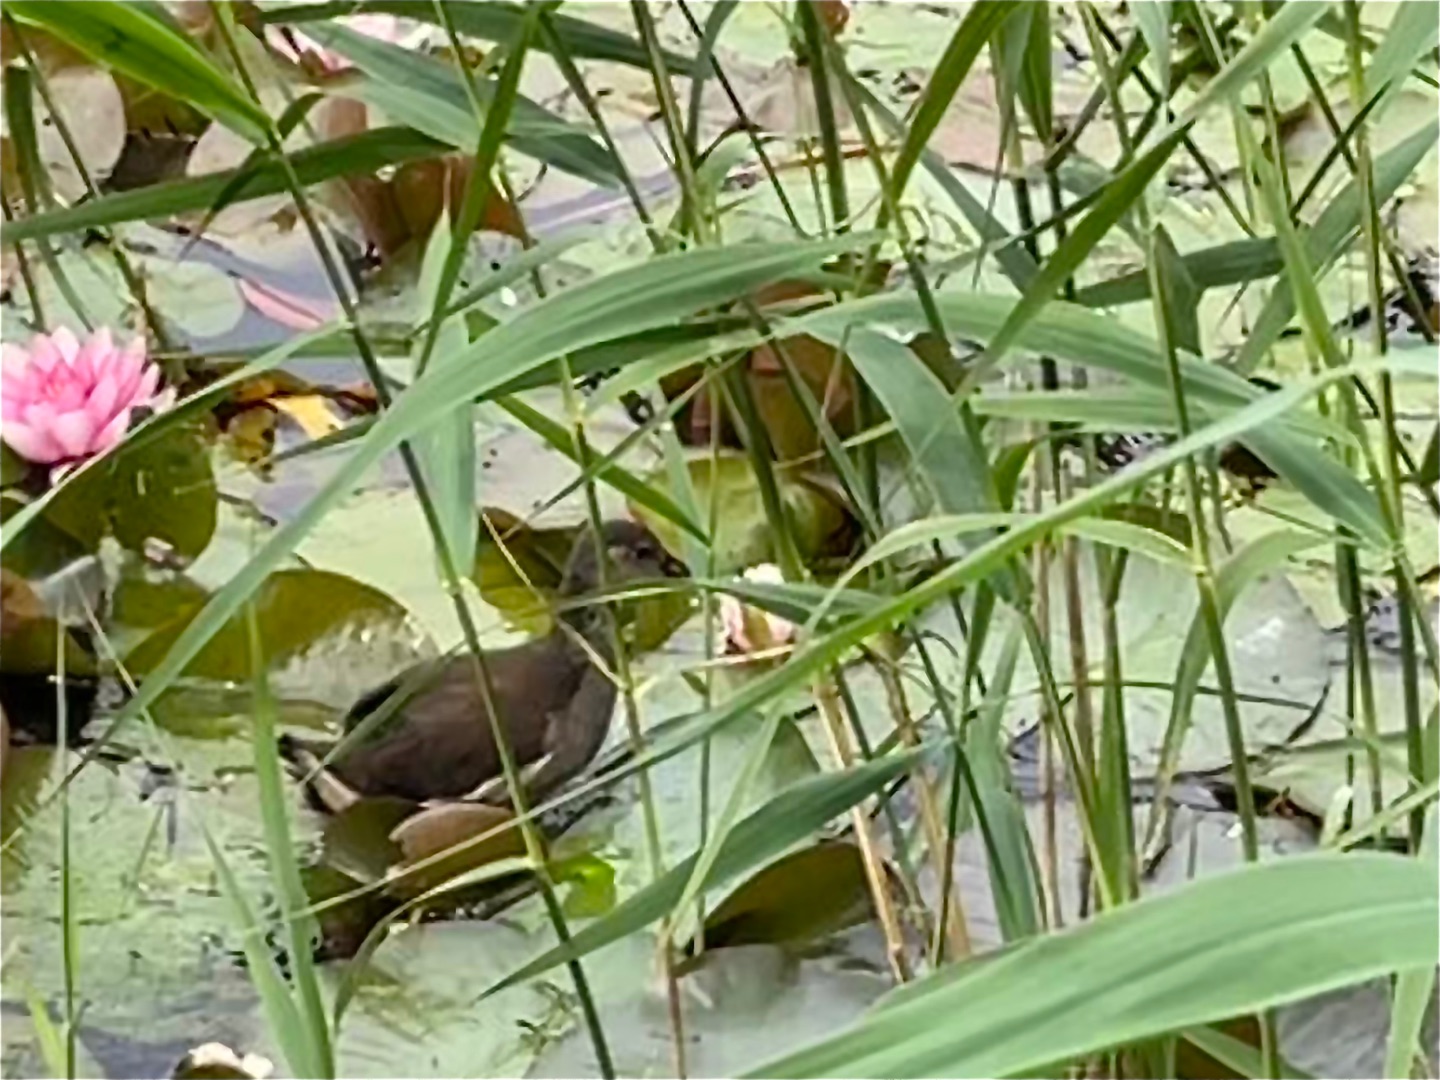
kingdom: Animalia
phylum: Chordata
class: Aves
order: Gruiformes
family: Rallidae
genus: Gallinula
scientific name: Gallinula chloropus
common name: Grønbenet rørhøne
